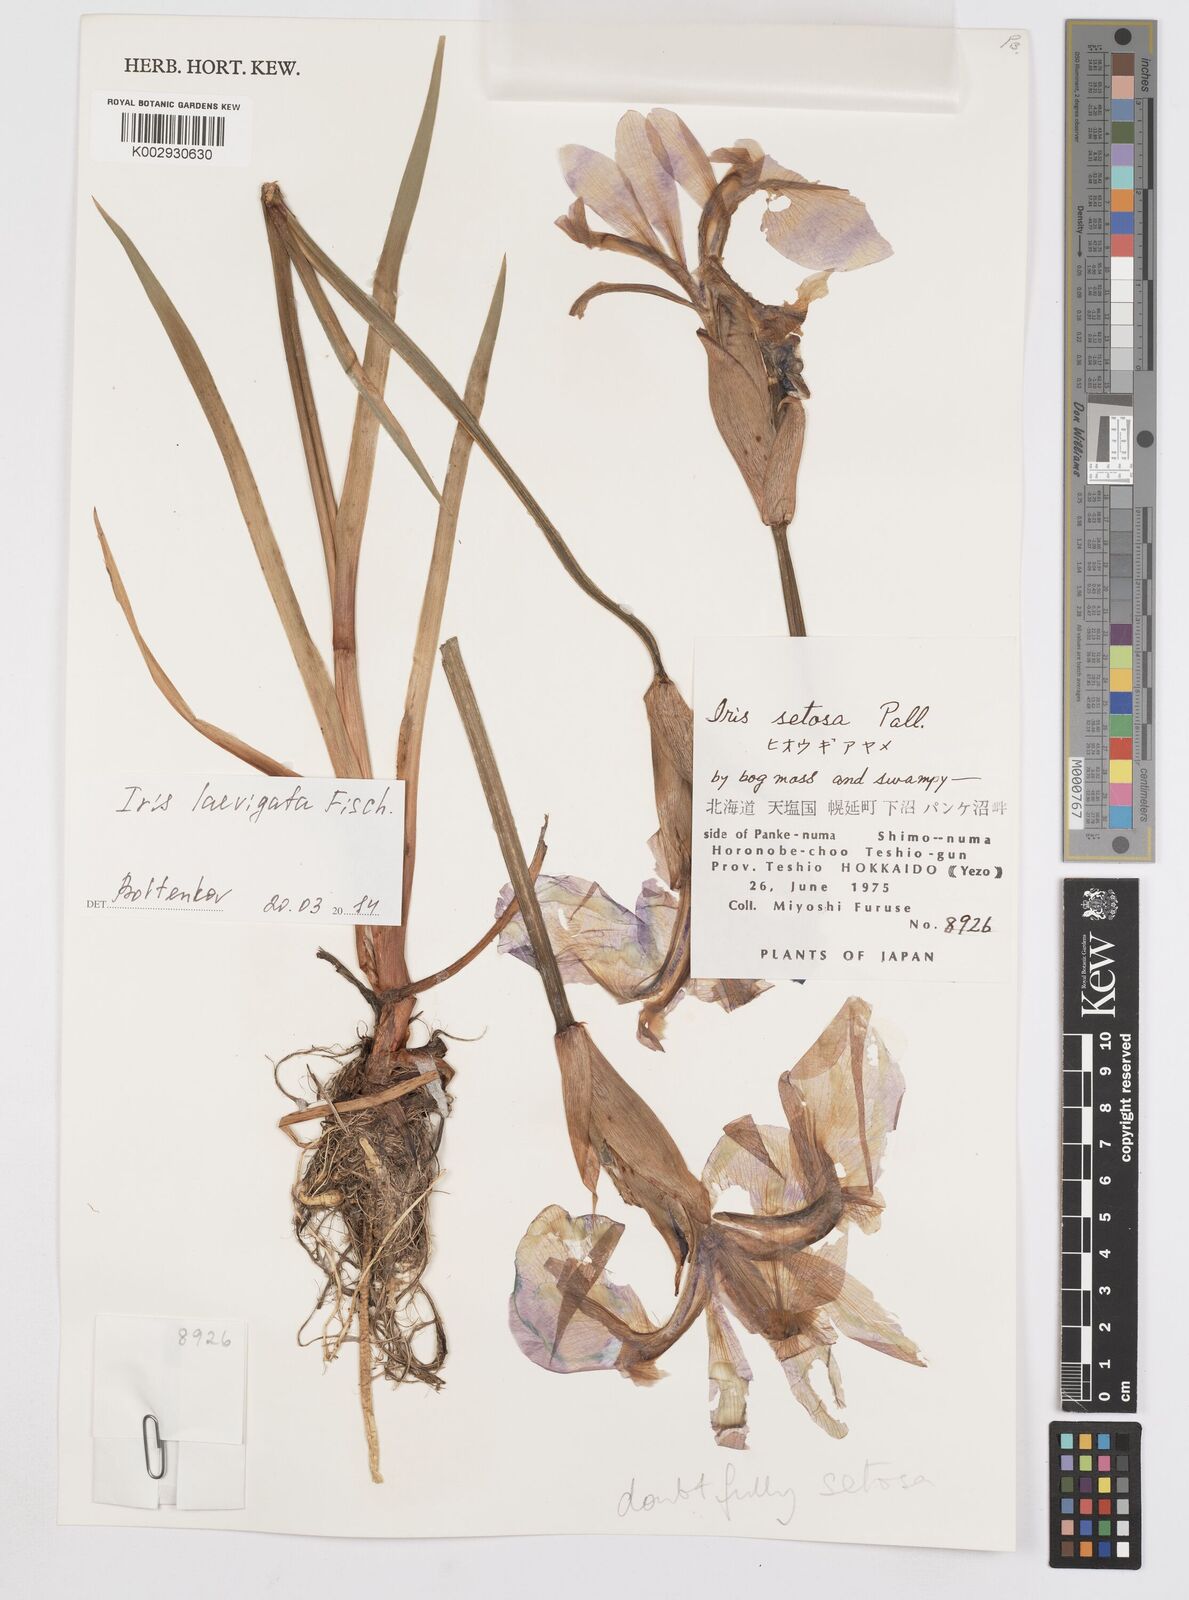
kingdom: Plantae
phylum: Tracheophyta
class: Liliopsida
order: Asparagales
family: Iridaceae
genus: Iris
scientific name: Iris laevigata
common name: Japanese iris
